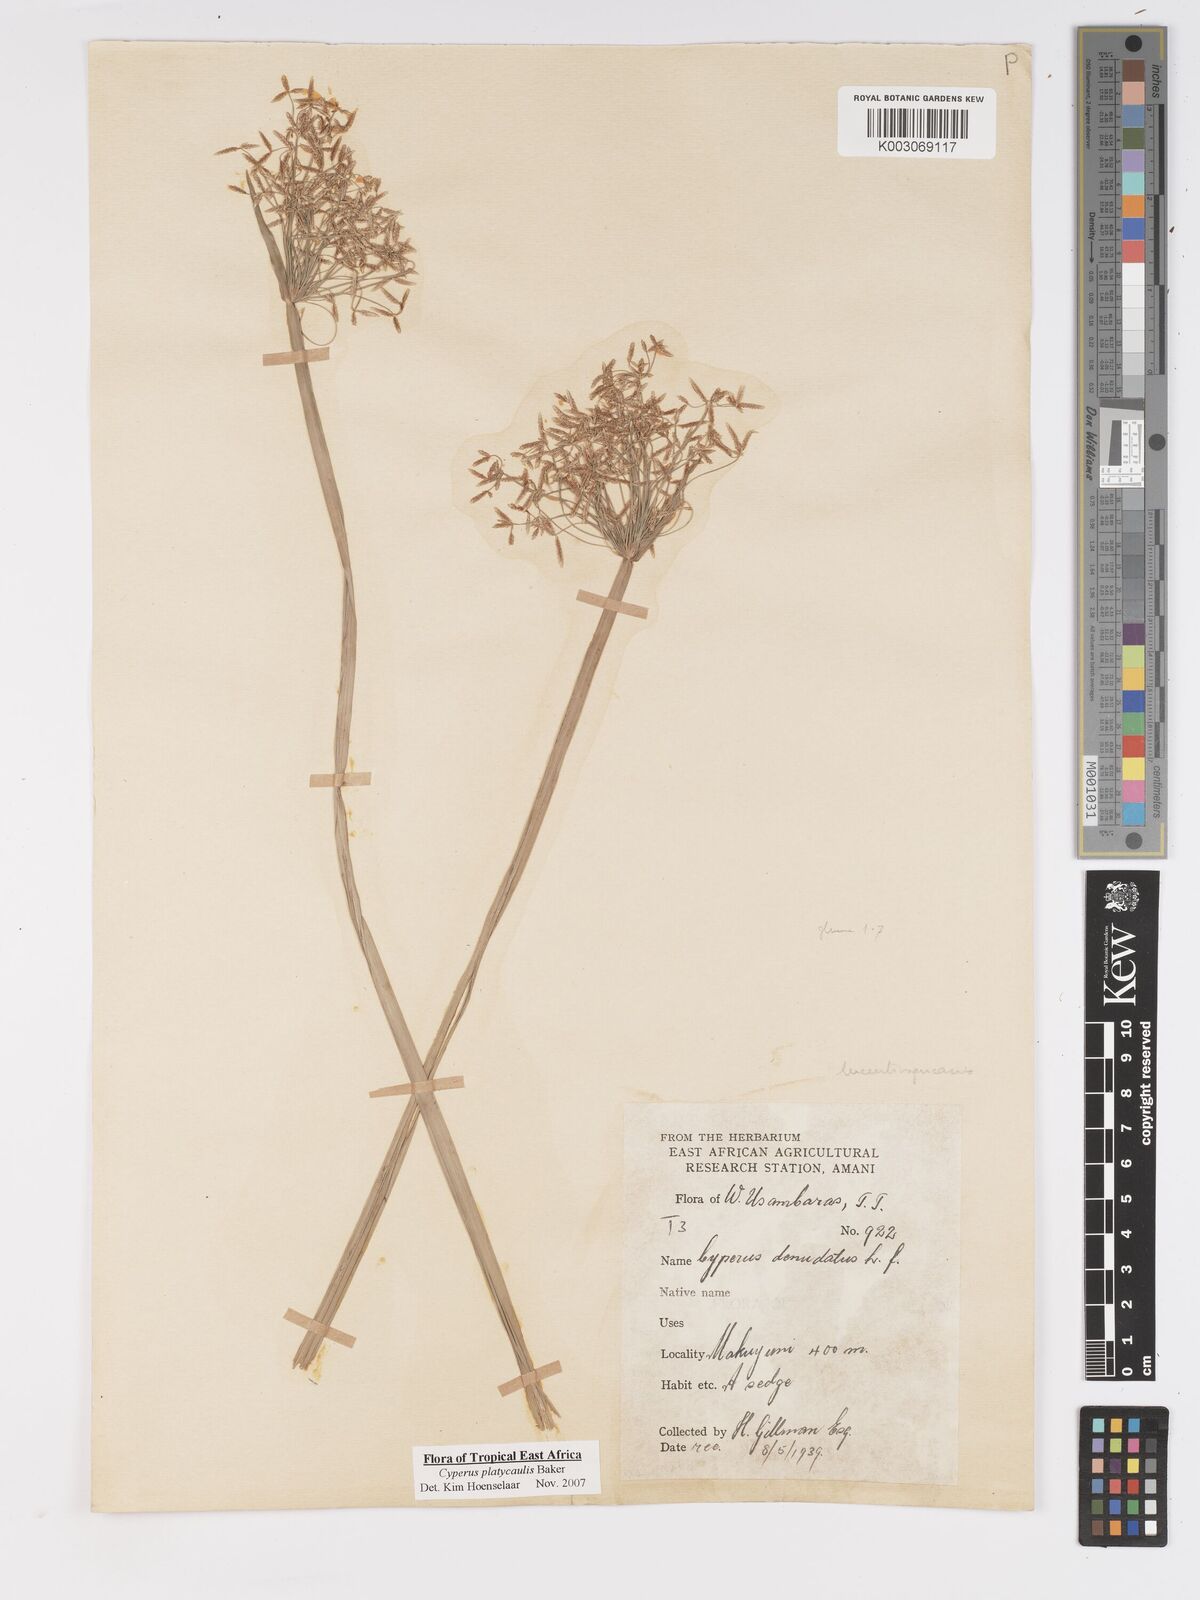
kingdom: Plantae
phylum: Tracheophyta
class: Liliopsida
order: Poales
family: Cyperaceae
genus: Cyperus
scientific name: Cyperus platycaulis
